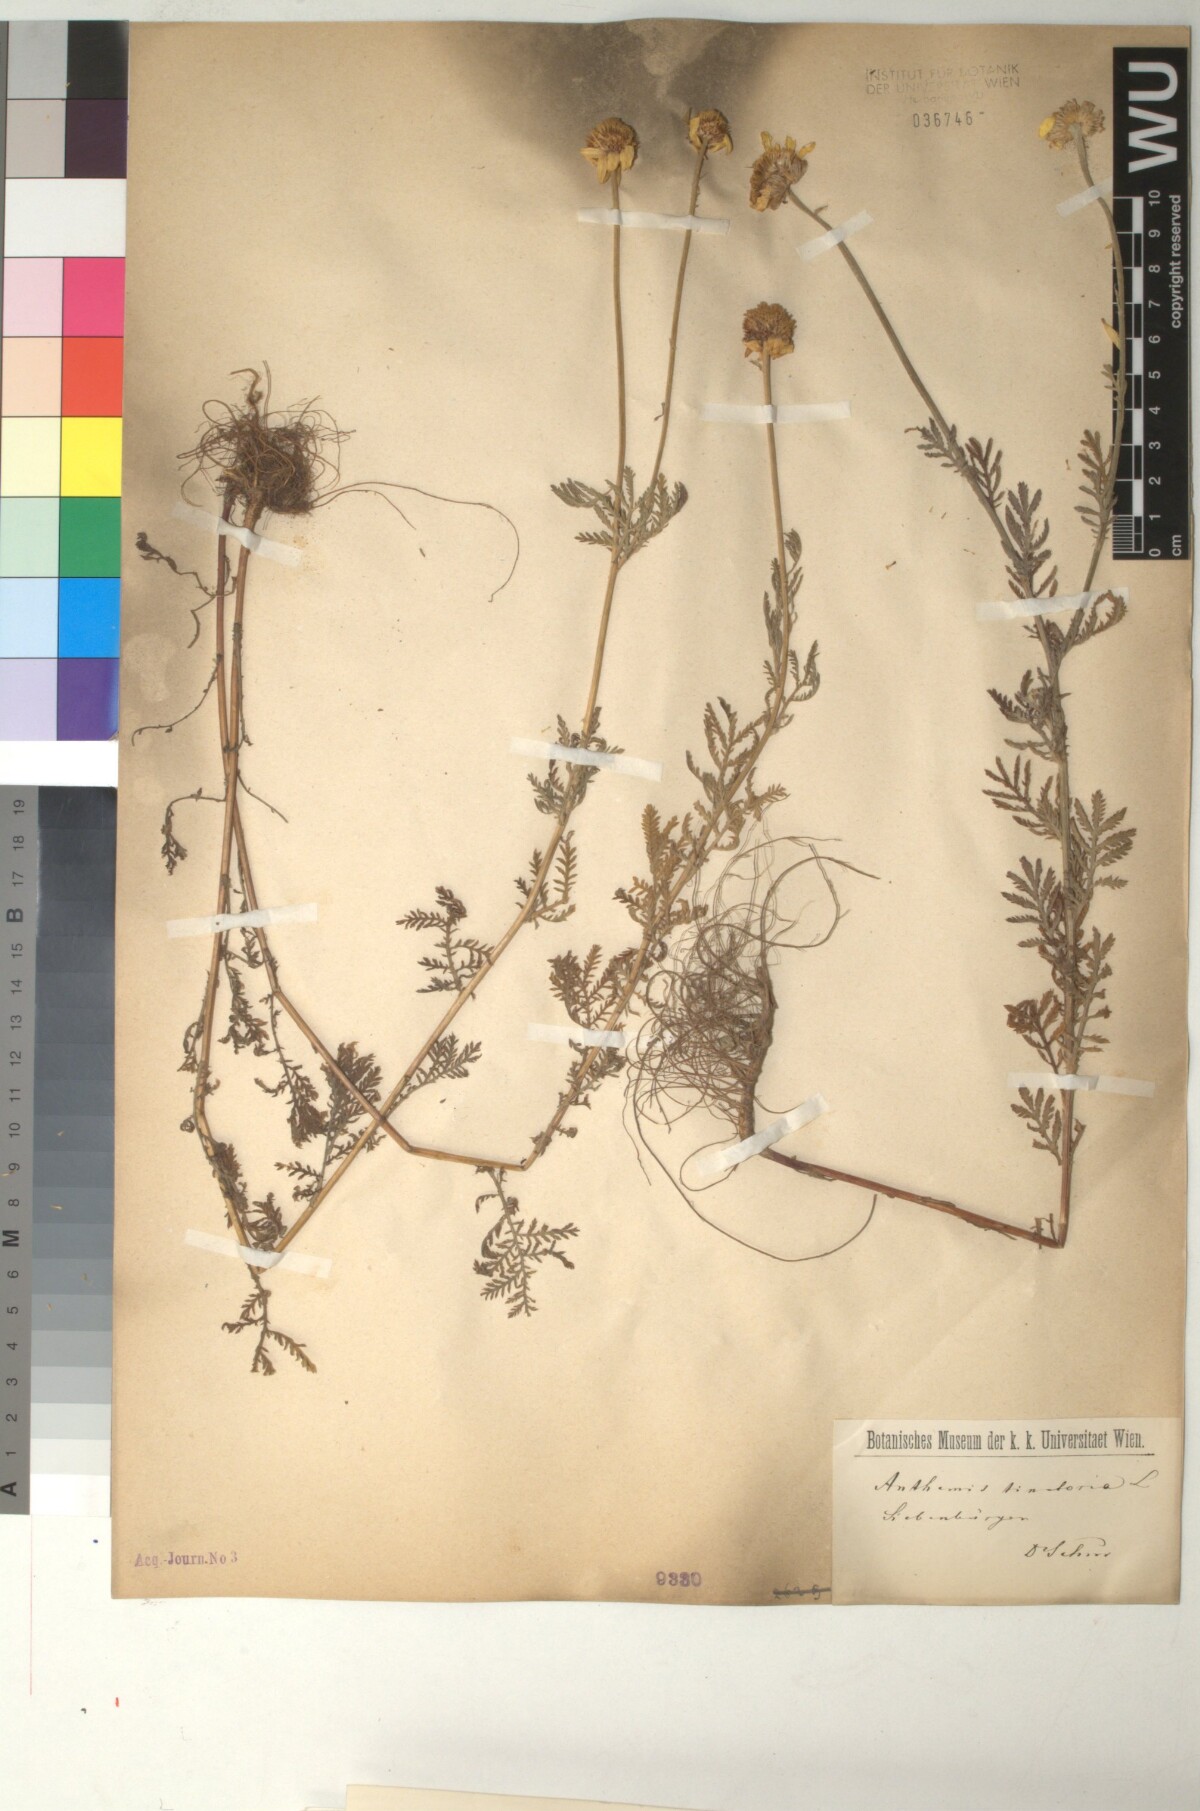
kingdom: Plantae
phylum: Tracheophyta
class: Magnoliopsida
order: Asterales
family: Asteraceae
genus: Cota
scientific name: Cota tinctoria
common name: Golden chamomile
